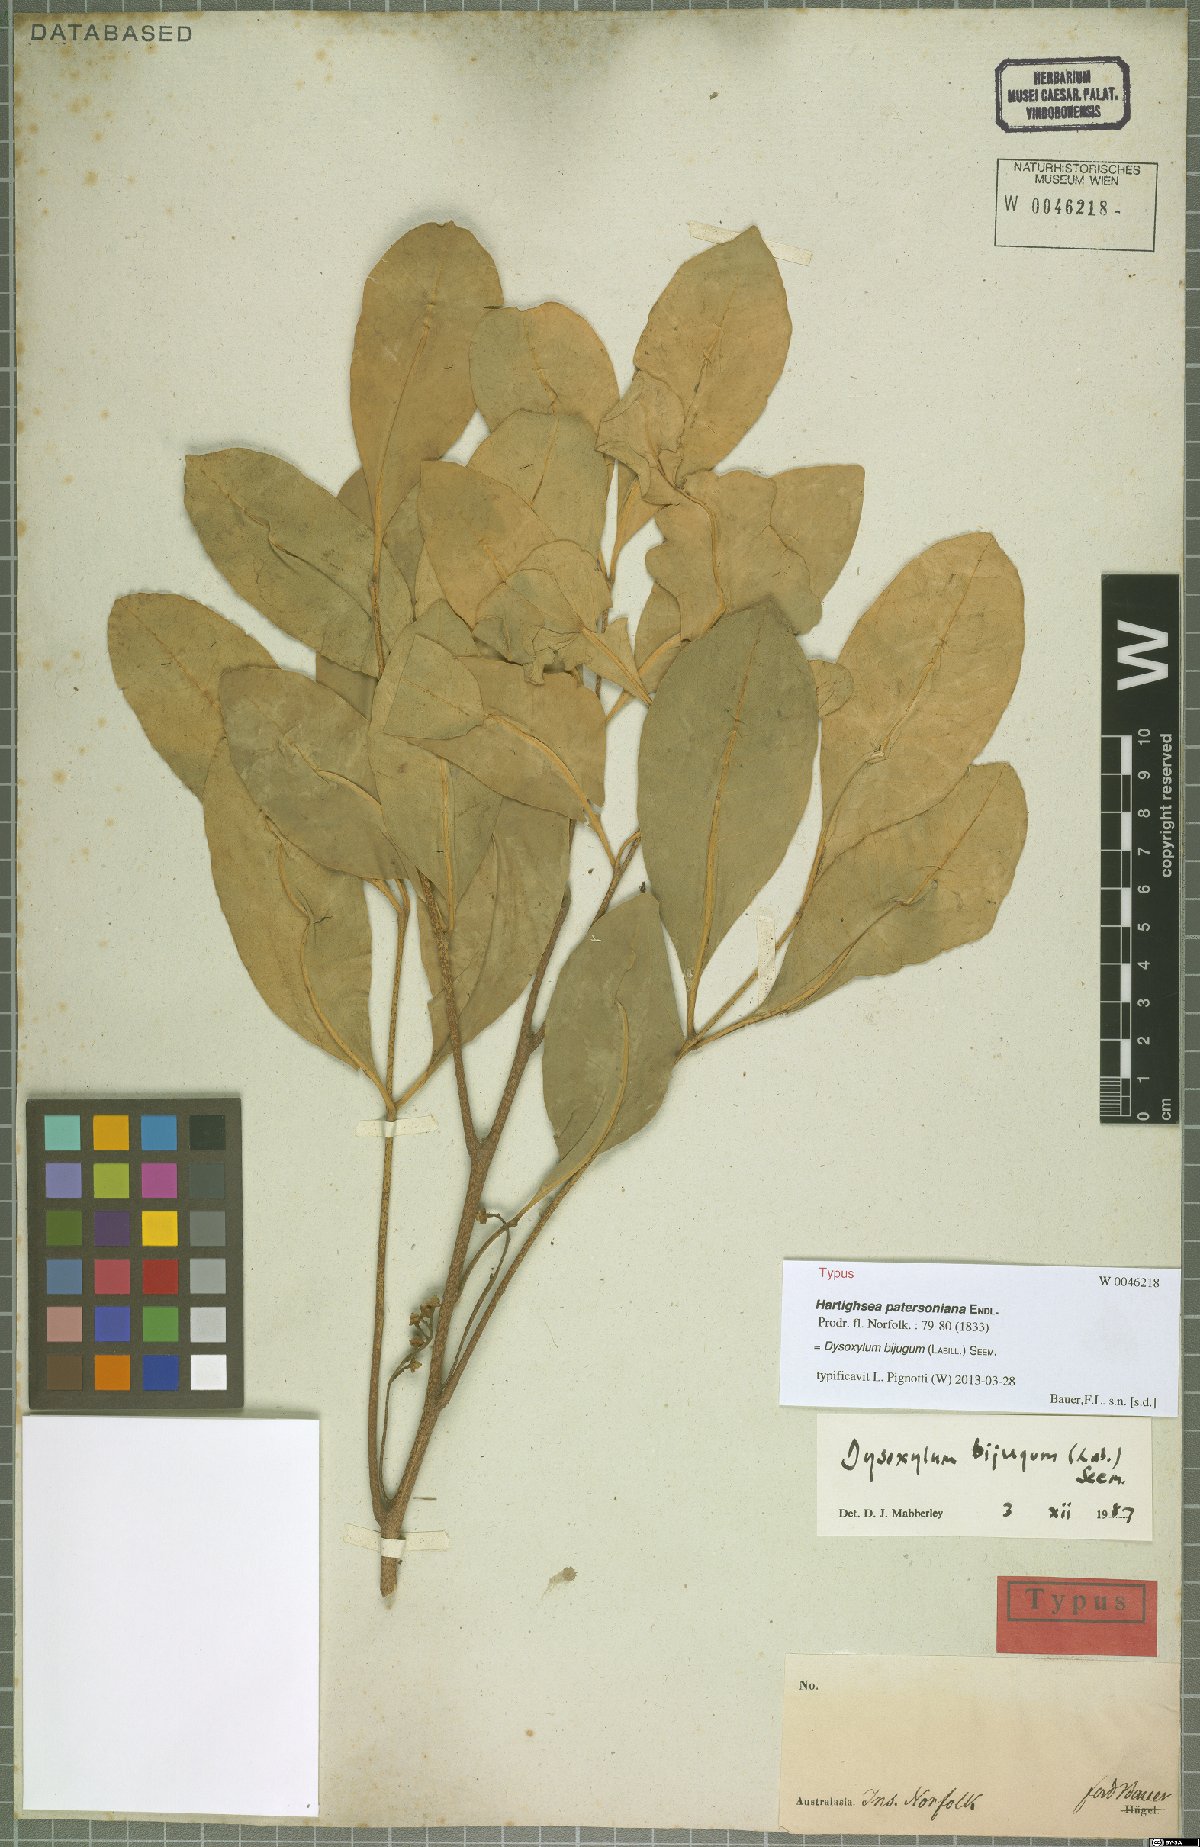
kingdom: Plantae
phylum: Tracheophyta
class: Magnoliopsida
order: Sapindales
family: Meliaceae
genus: Didymocheton
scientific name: Didymocheton bijugus
